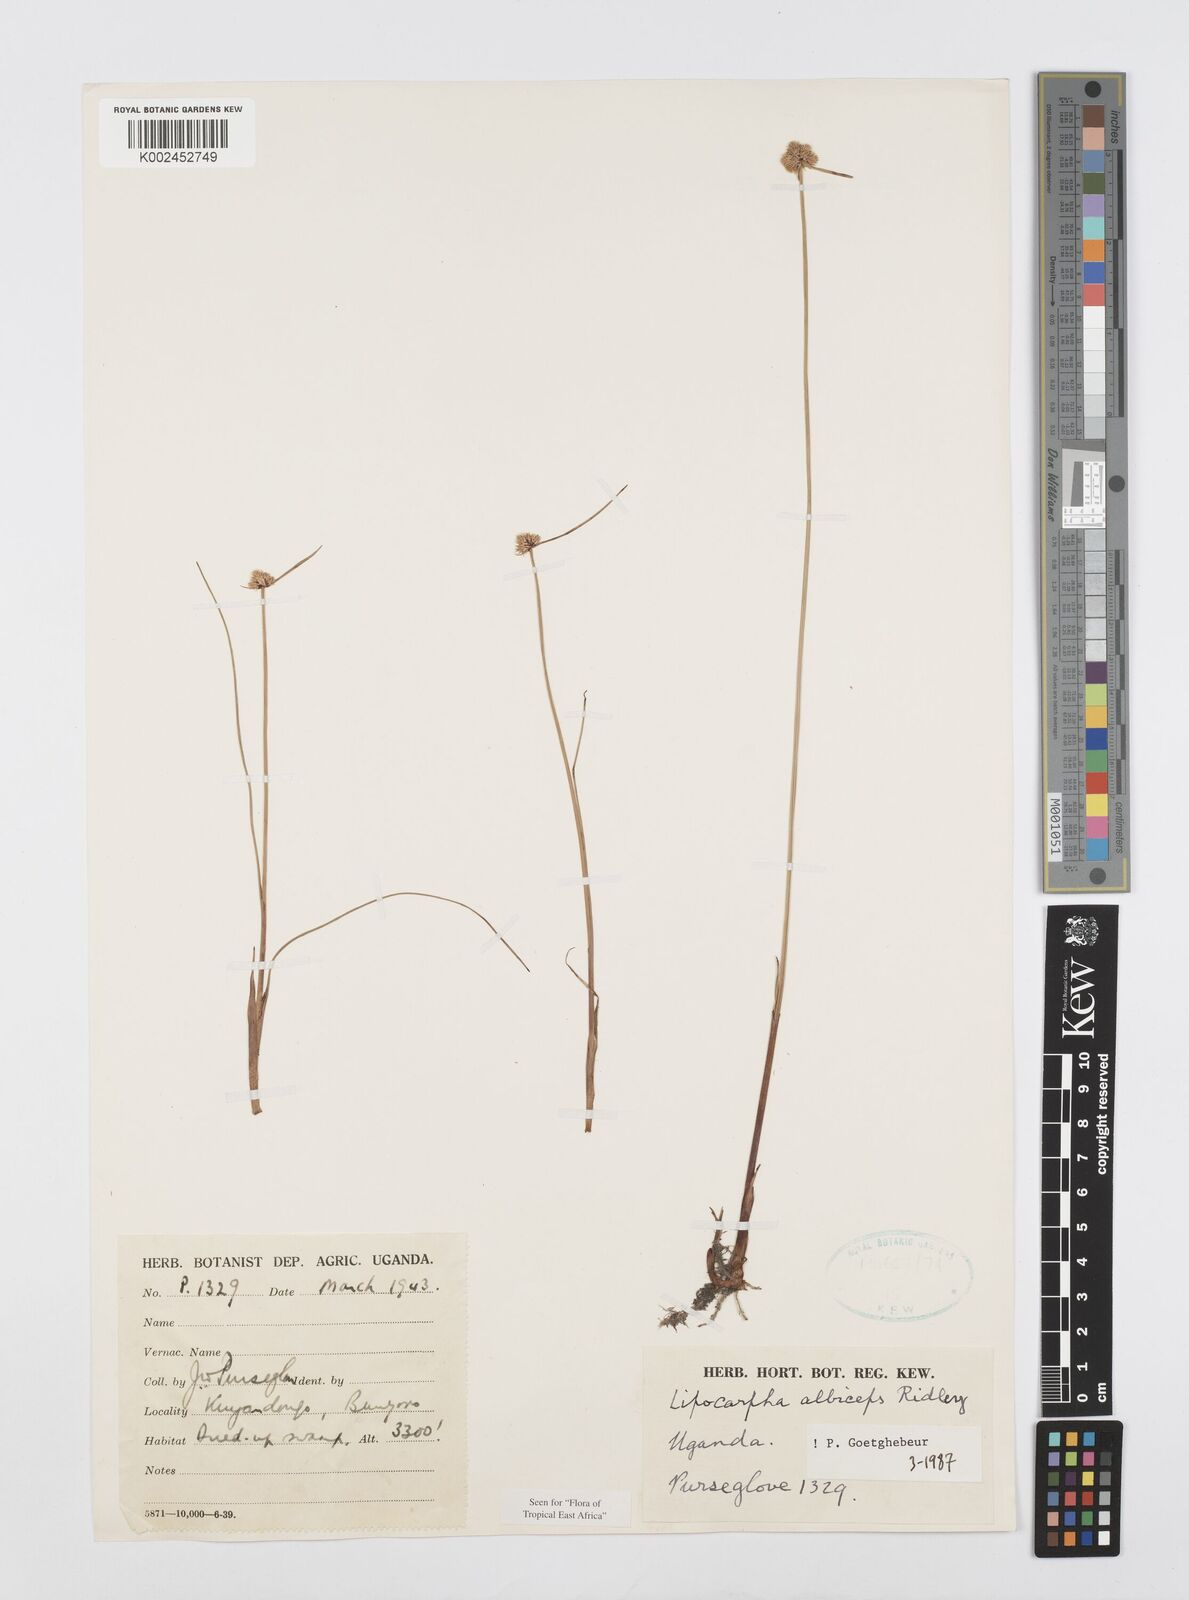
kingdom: Plantae
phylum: Tracheophyta
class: Liliopsida
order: Poales
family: Cyperaceae
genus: Cyperus
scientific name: Cyperus albiceps
